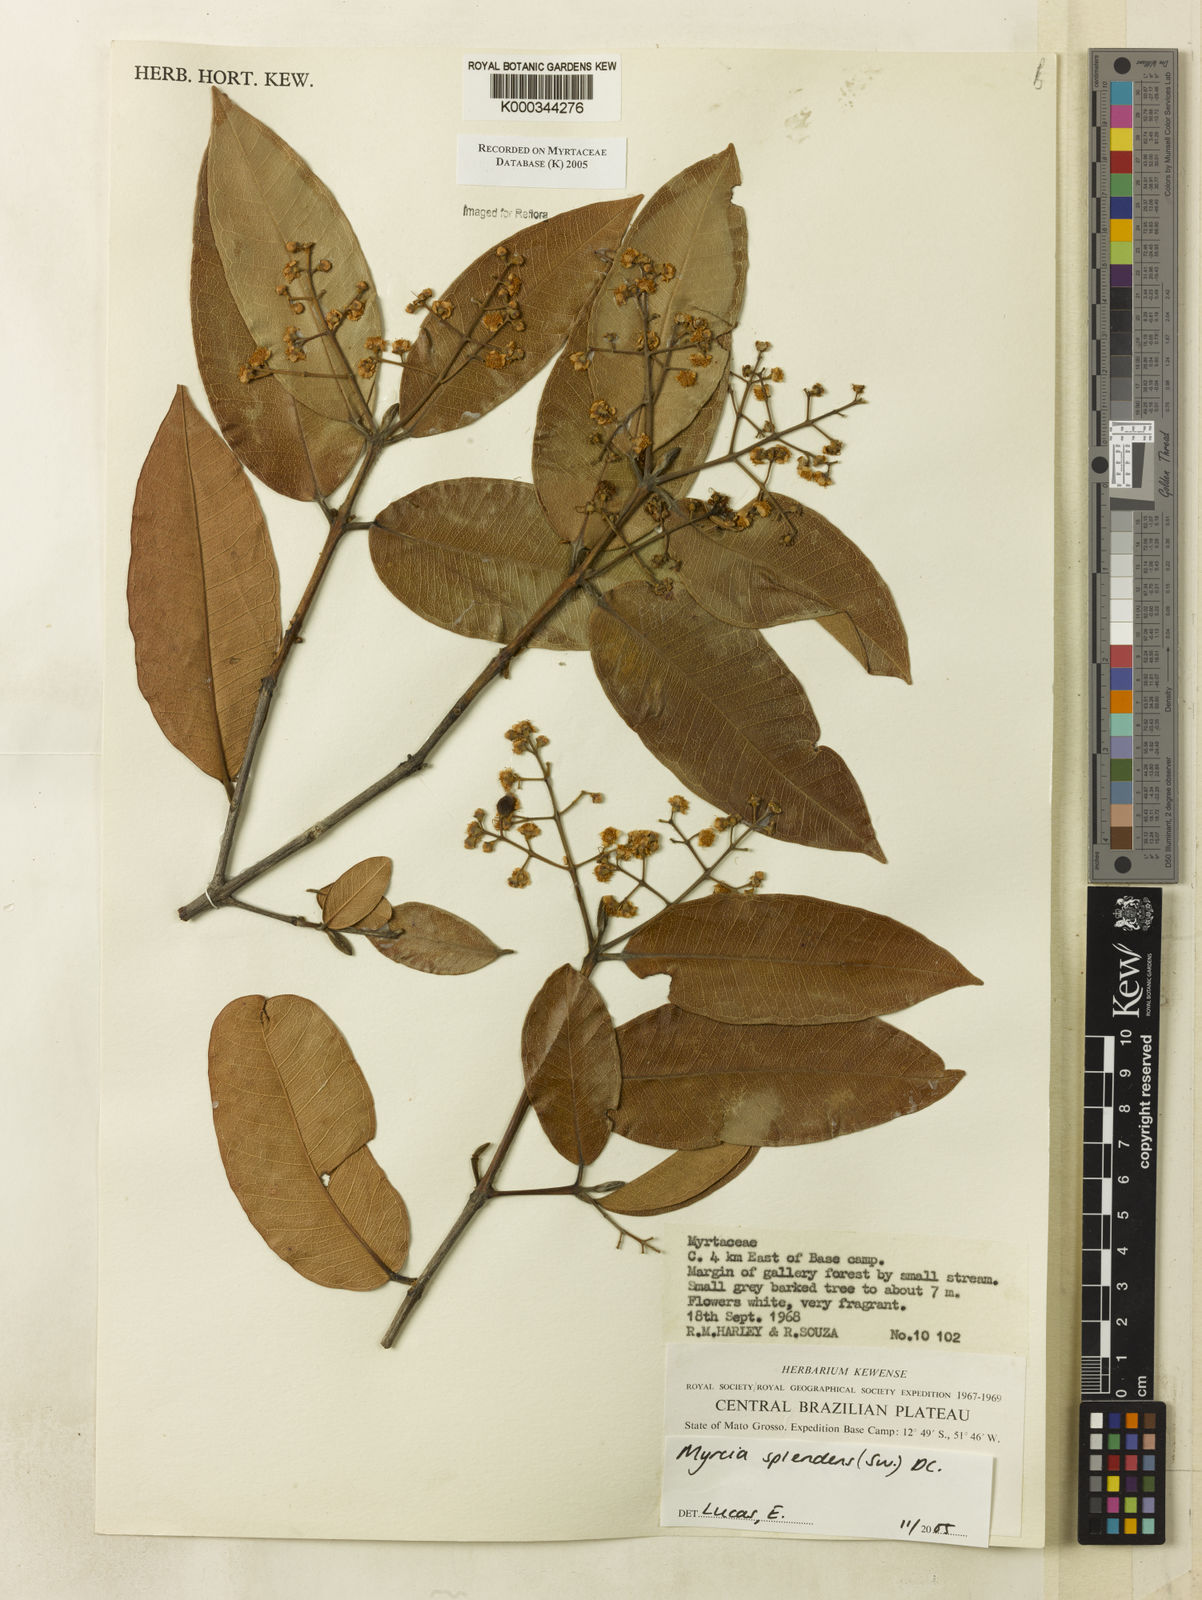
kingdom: Plantae
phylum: Tracheophyta
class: Magnoliopsida
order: Myrtales
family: Myrtaceae
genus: Myrcia
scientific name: Myrcia splendens
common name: Surinam cherry
